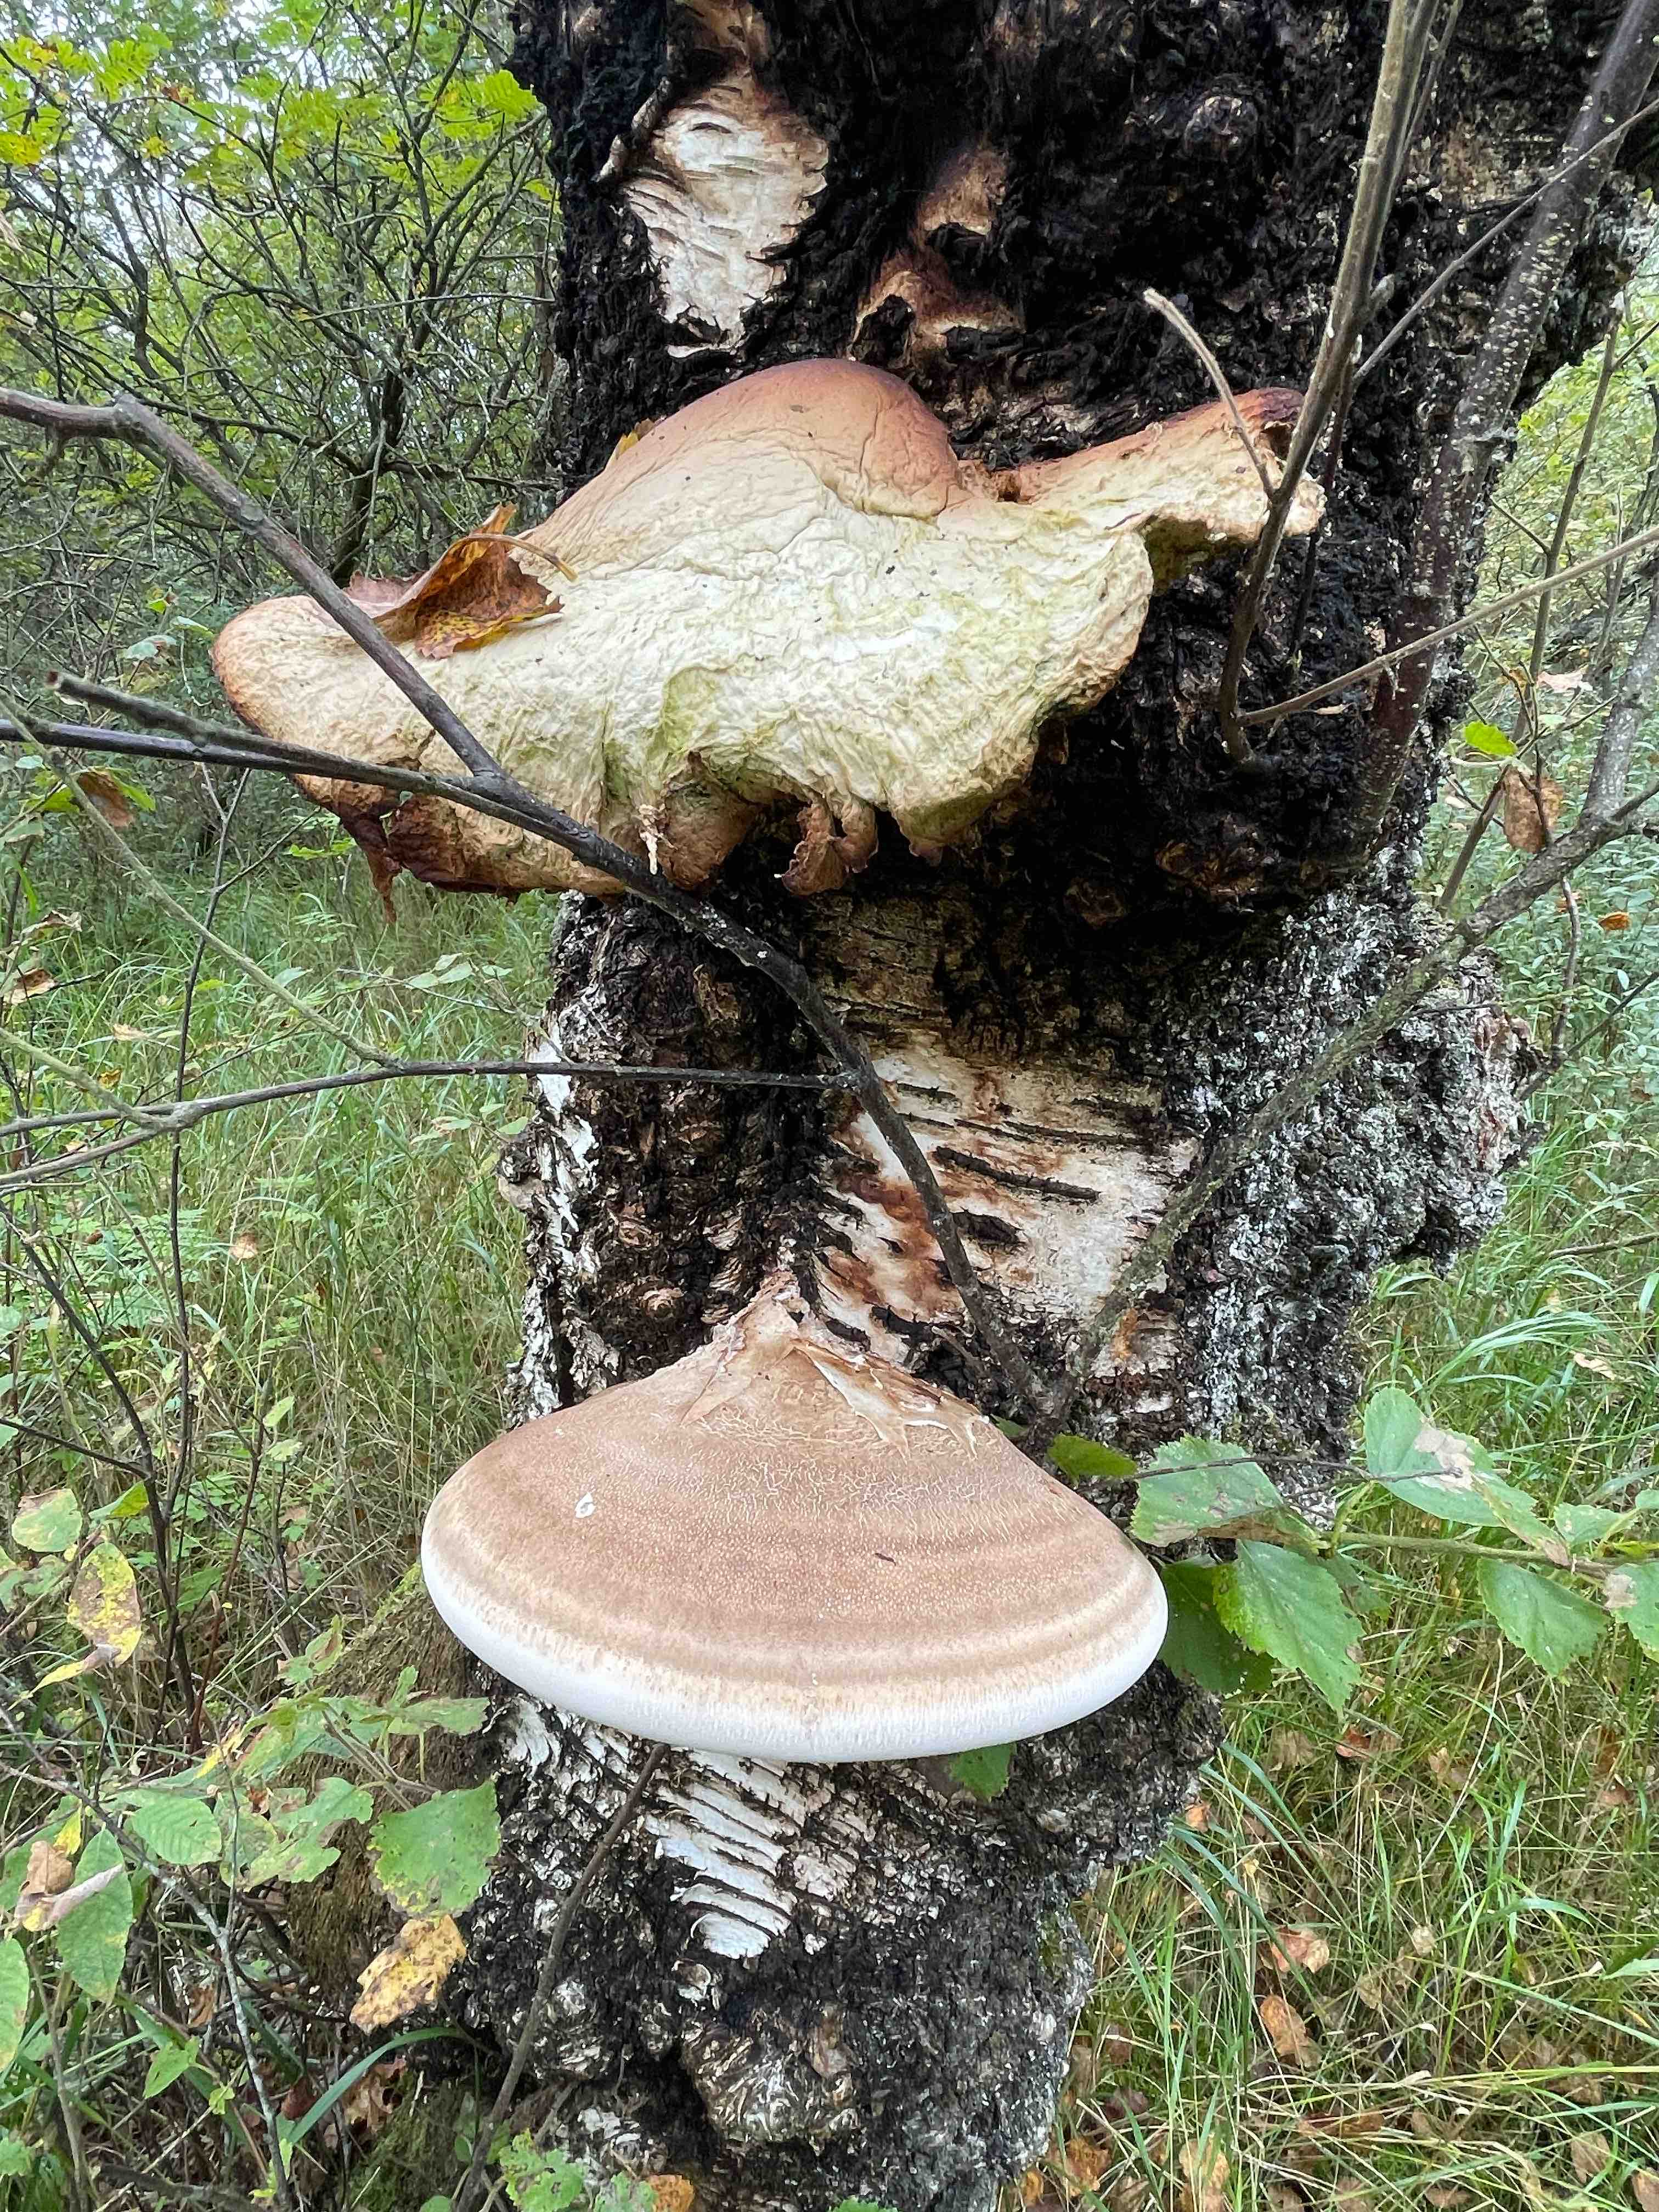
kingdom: Fungi
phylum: Basidiomycota
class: Agaricomycetes
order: Polyporales
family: Fomitopsidaceae
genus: Fomitopsis
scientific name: Fomitopsis betulina
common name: birkeporesvamp
